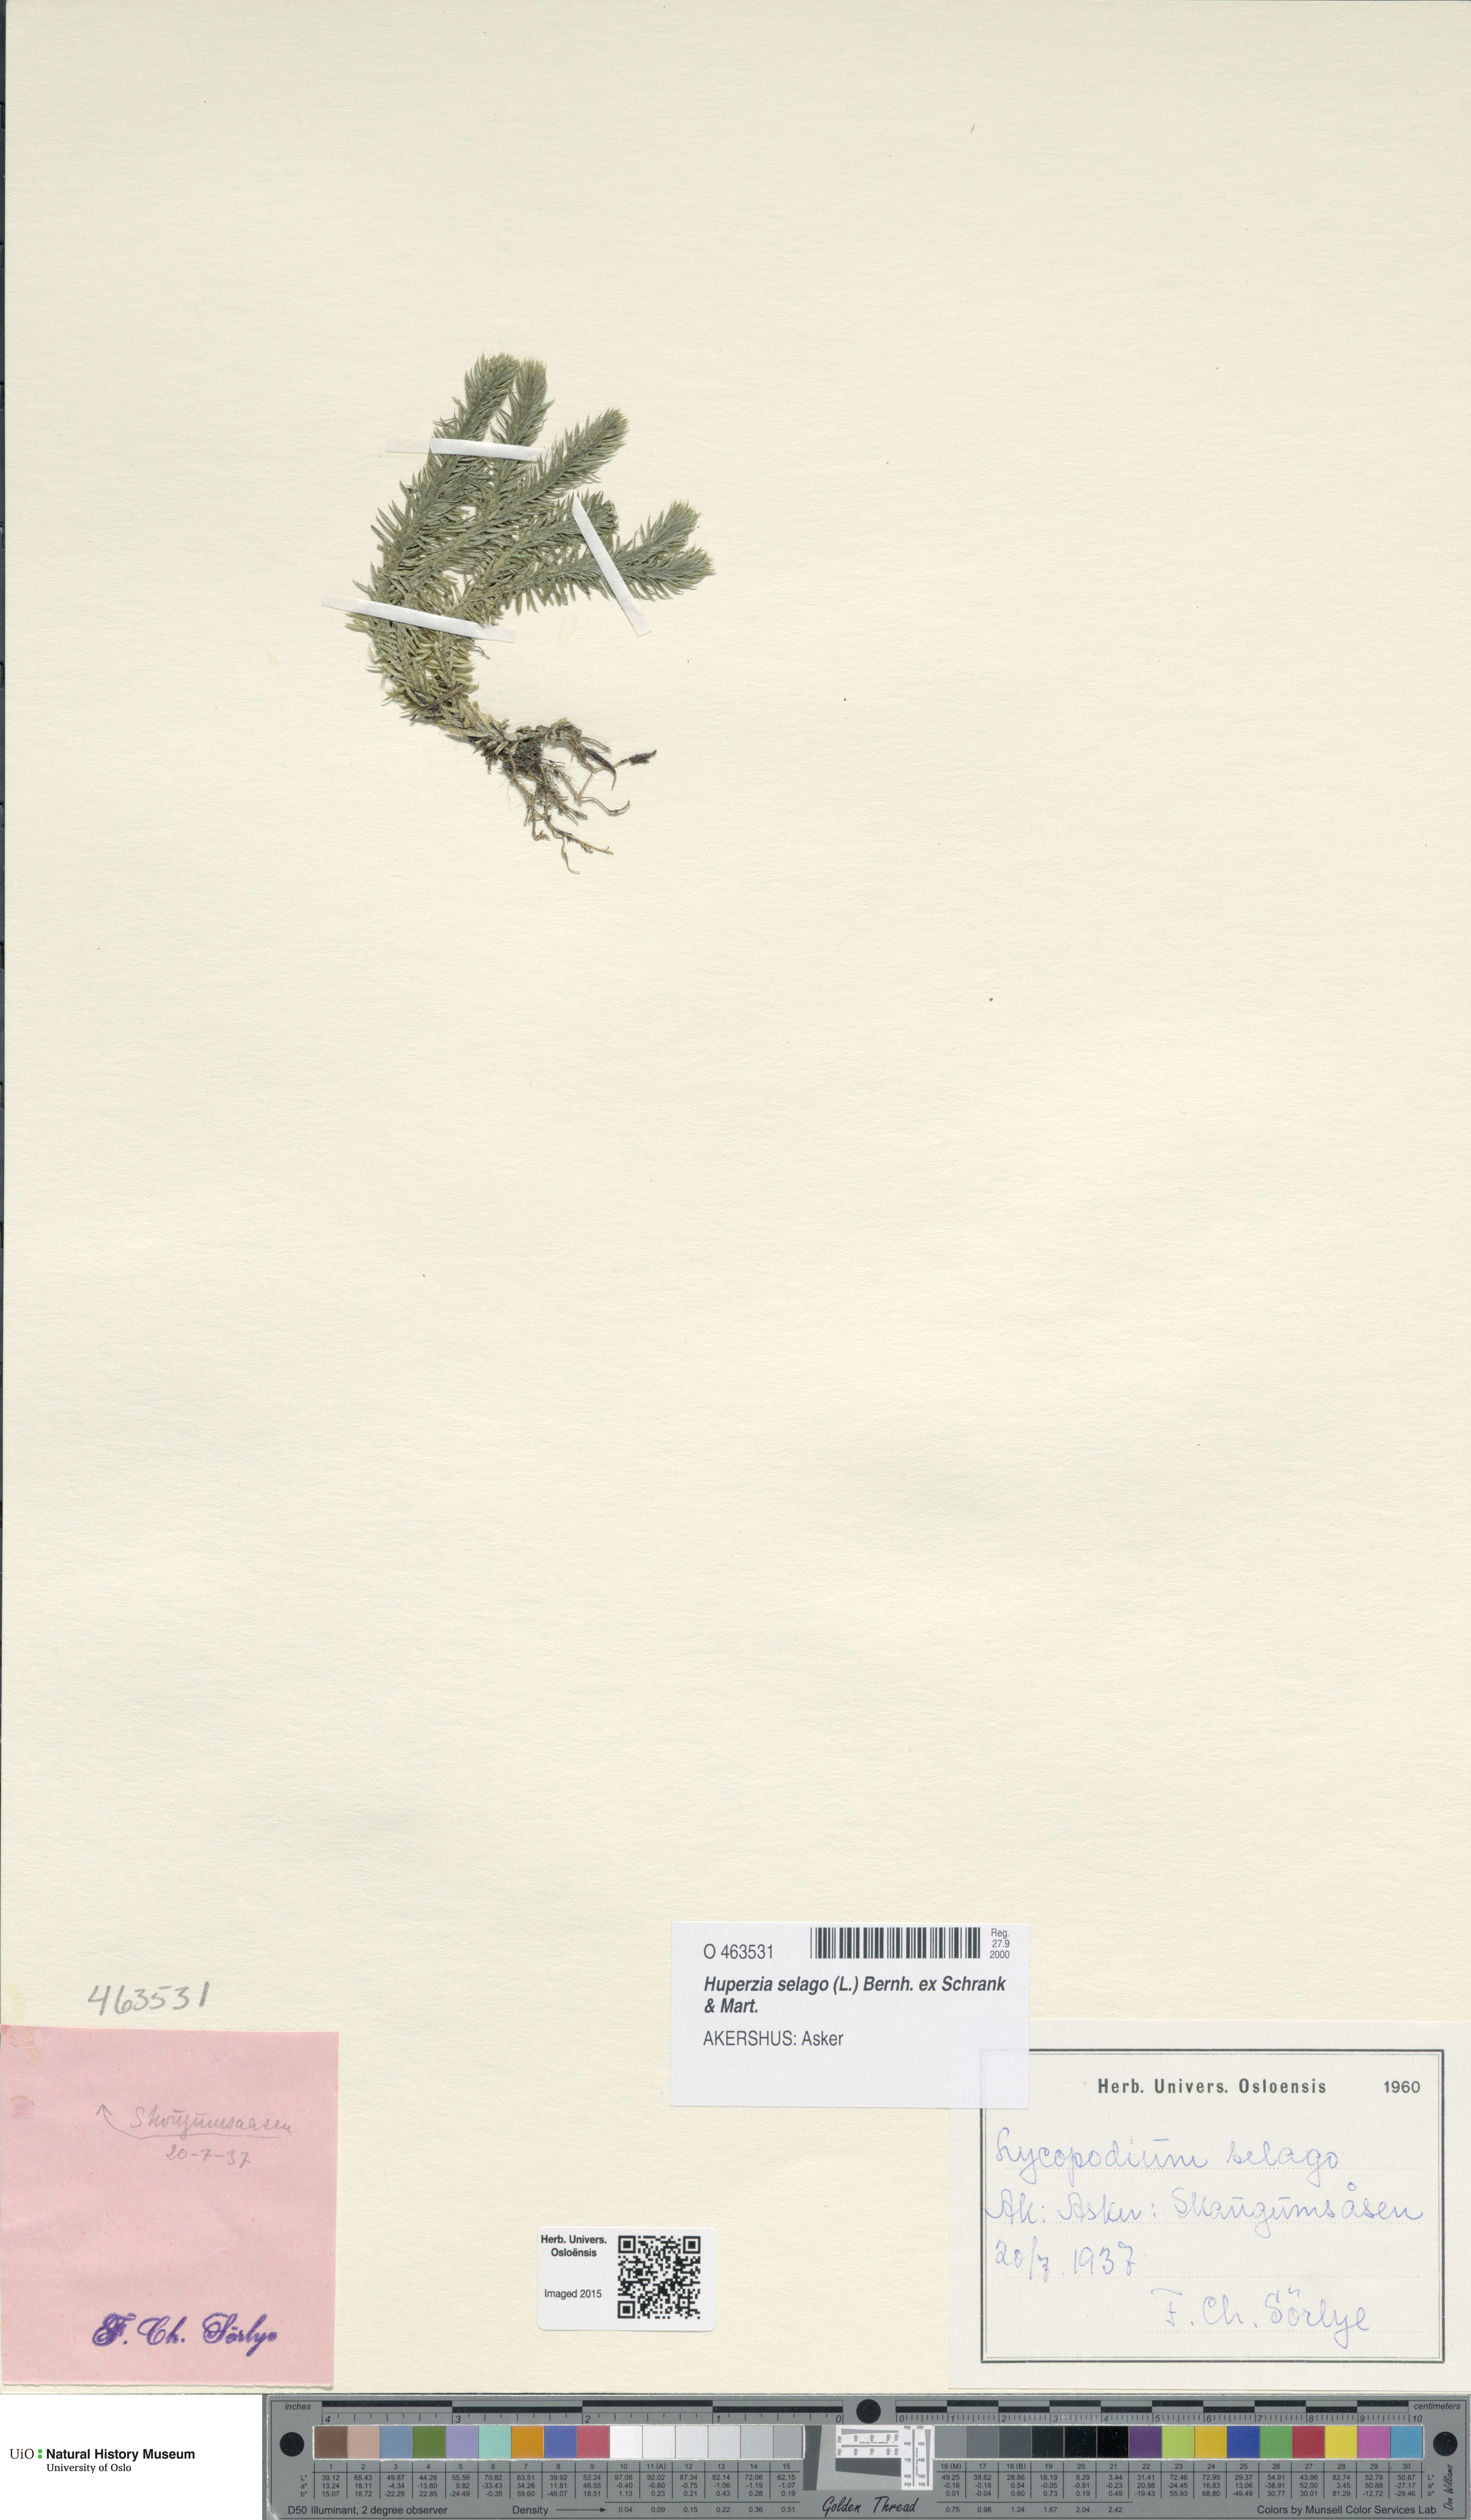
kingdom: Plantae
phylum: Tracheophyta
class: Lycopodiopsida
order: Lycopodiales
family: Lycopodiaceae
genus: Huperzia
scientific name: Huperzia selago
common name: Northern firmoss
